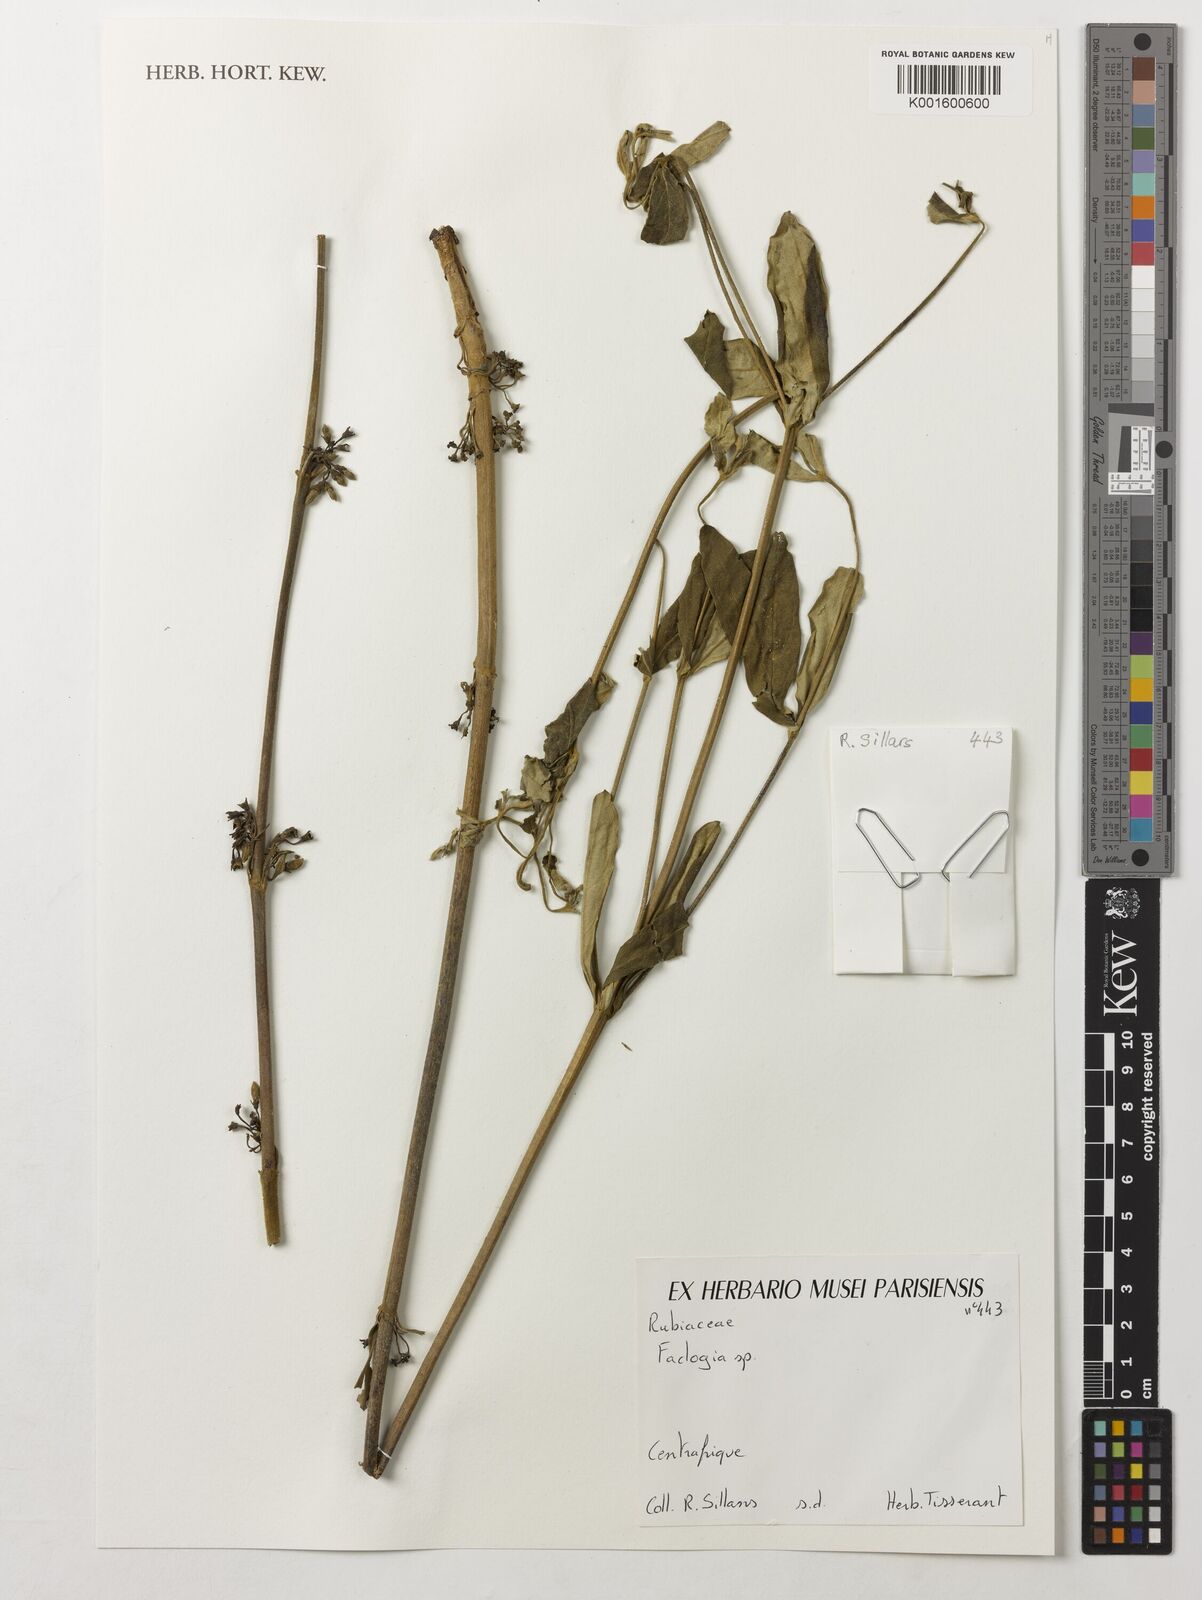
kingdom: Plantae
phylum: Tracheophyta
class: Magnoliopsida
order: Gentianales
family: Rubiaceae
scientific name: Rubiaceae
